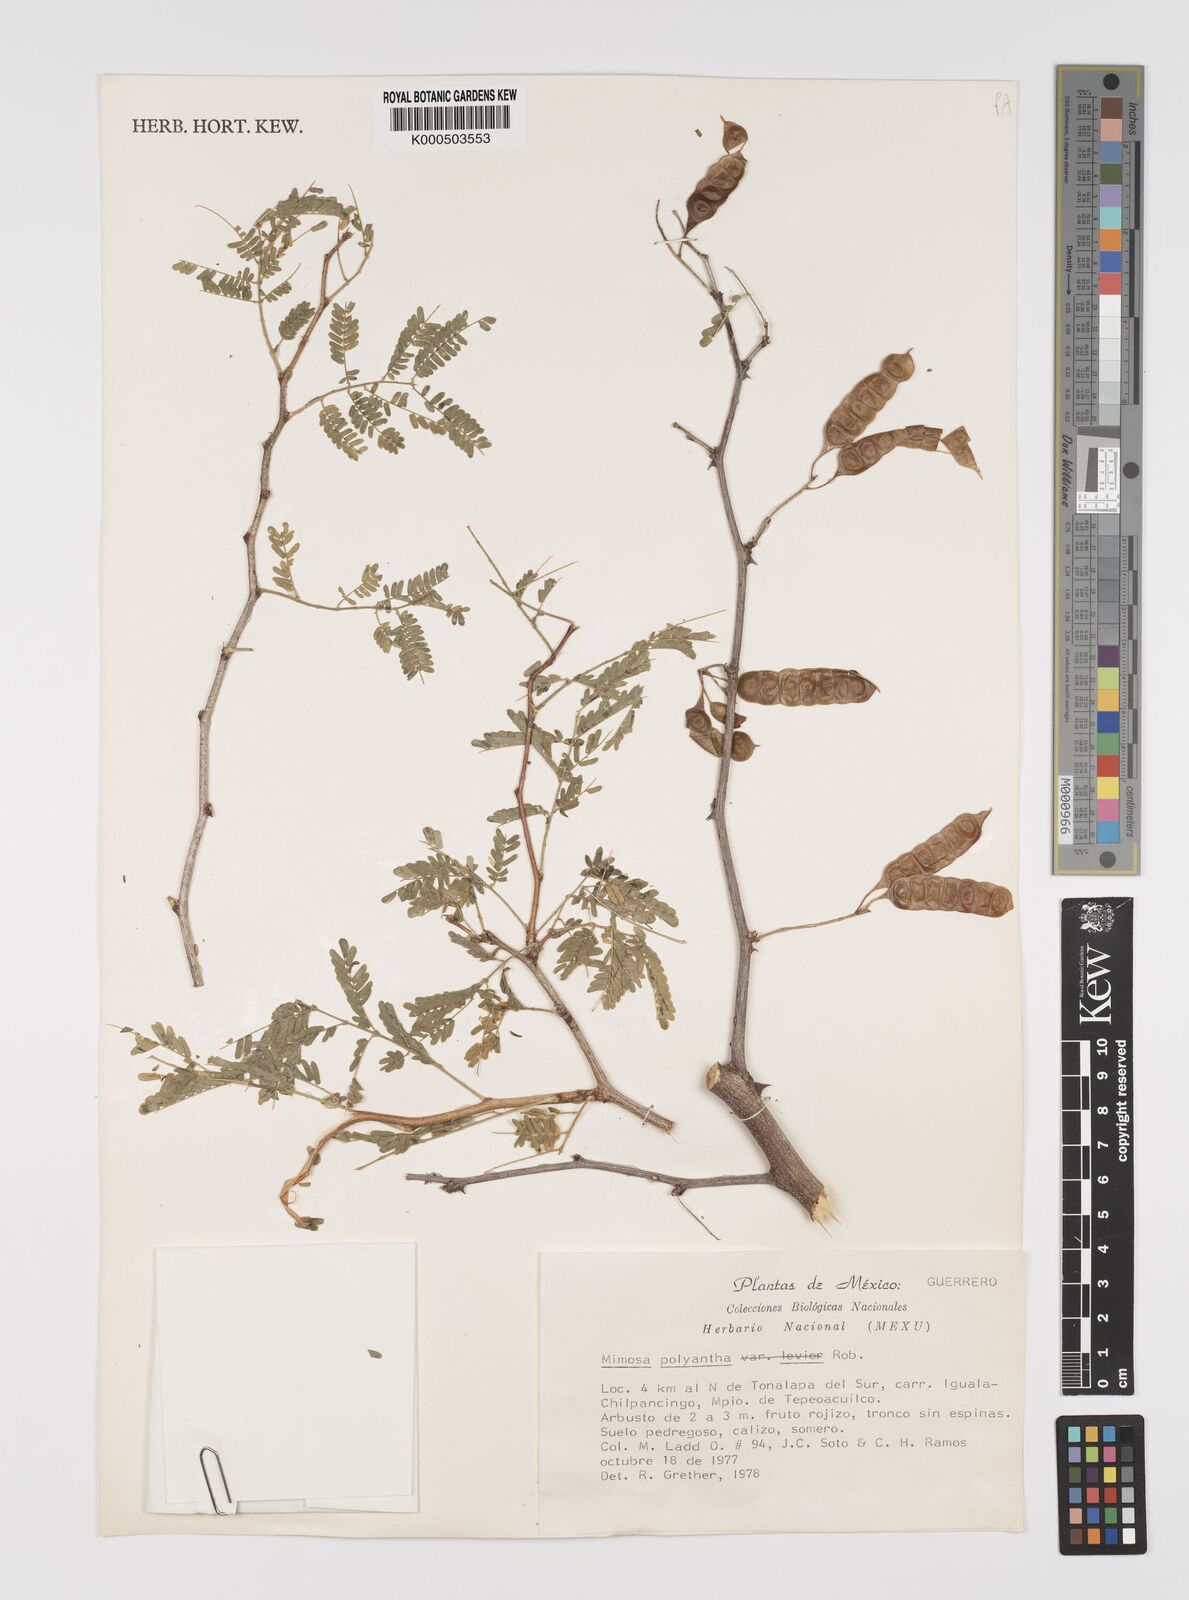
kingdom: Plantae
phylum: Tracheophyta
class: Magnoliopsida
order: Fabales
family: Fabaceae
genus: Mimosa
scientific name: Mimosa polyantha
